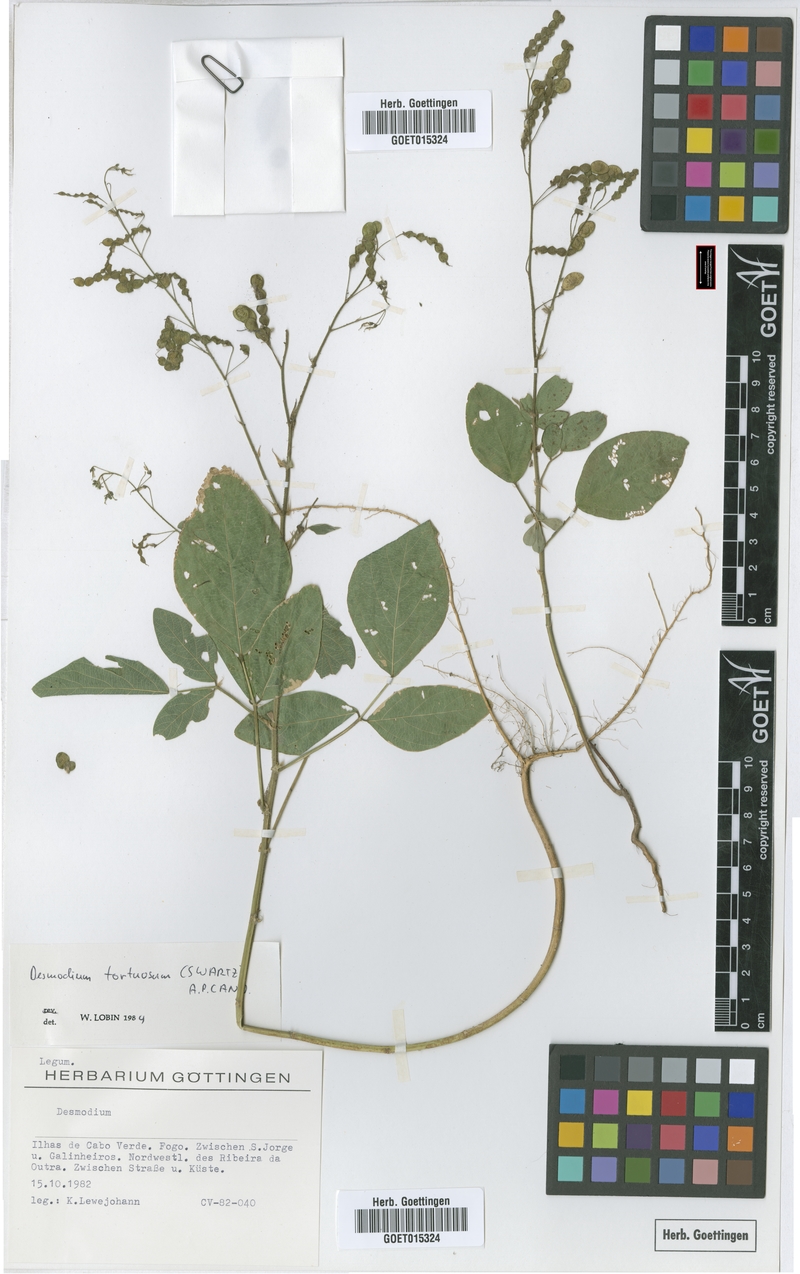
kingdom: Plantae
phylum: Tracheophyta
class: Magnoliopsida
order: Fabales
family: Fabaceae
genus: Desmodium
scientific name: Desmodium tortuosum
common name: Dixie ticktrefoil
